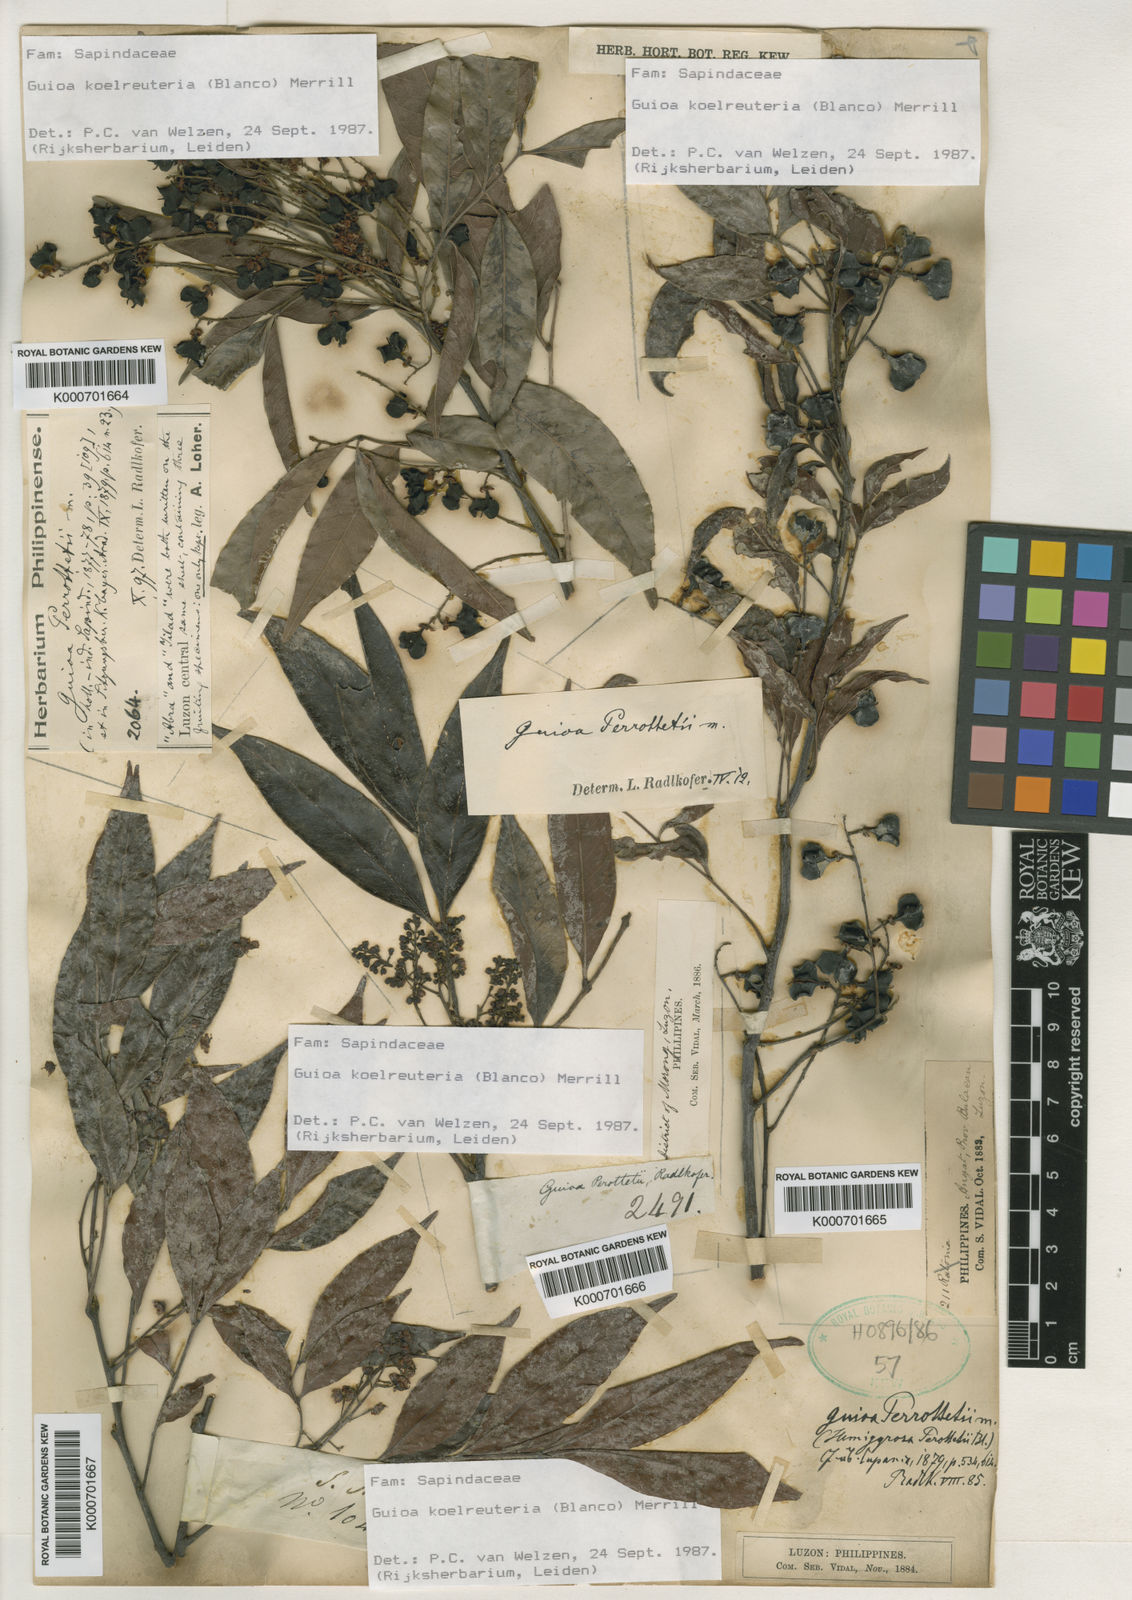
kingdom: Plantae
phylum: Tracheophyta
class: Magnoliopsida
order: Sapindales
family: Sapindaceae
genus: Guioa
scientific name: Guioa koelreuteria
